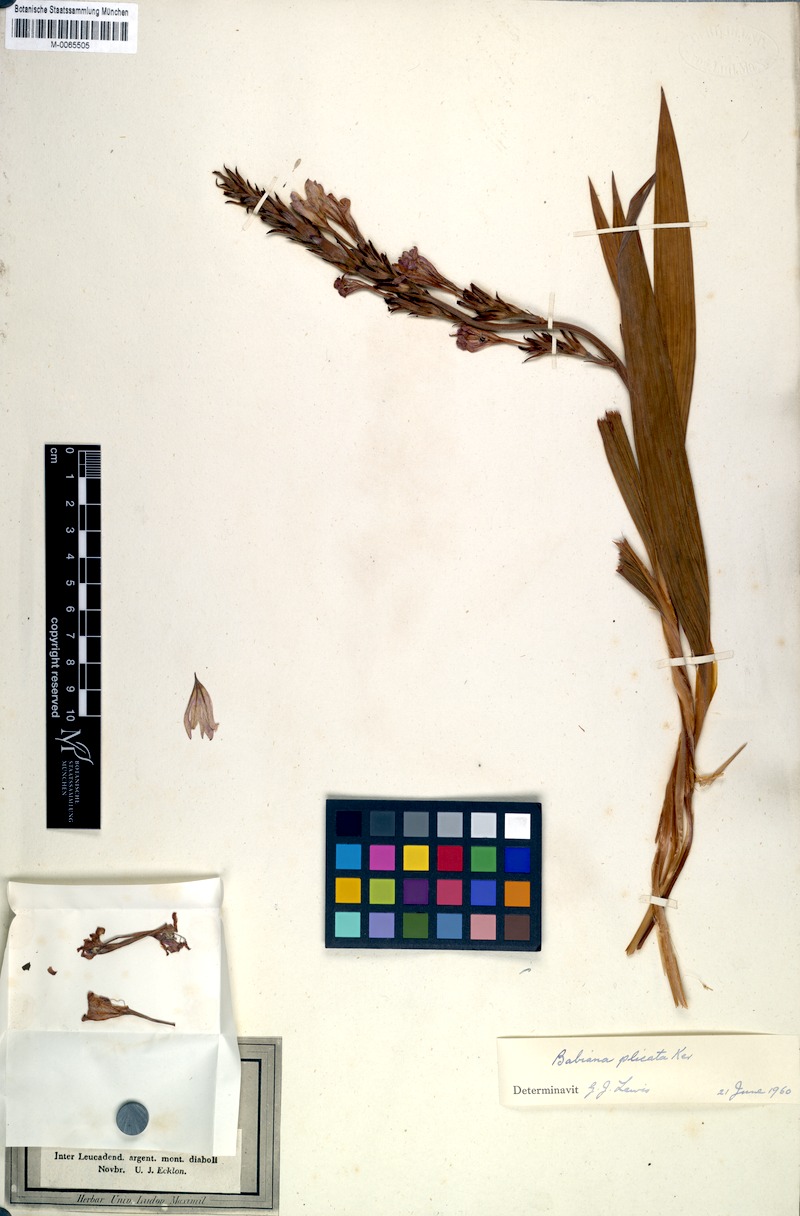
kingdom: Plantae
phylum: Tracheophyta
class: Liliopsida
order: Asparagales
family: Iridaceae
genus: Babiana
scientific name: Babiana fragrans
